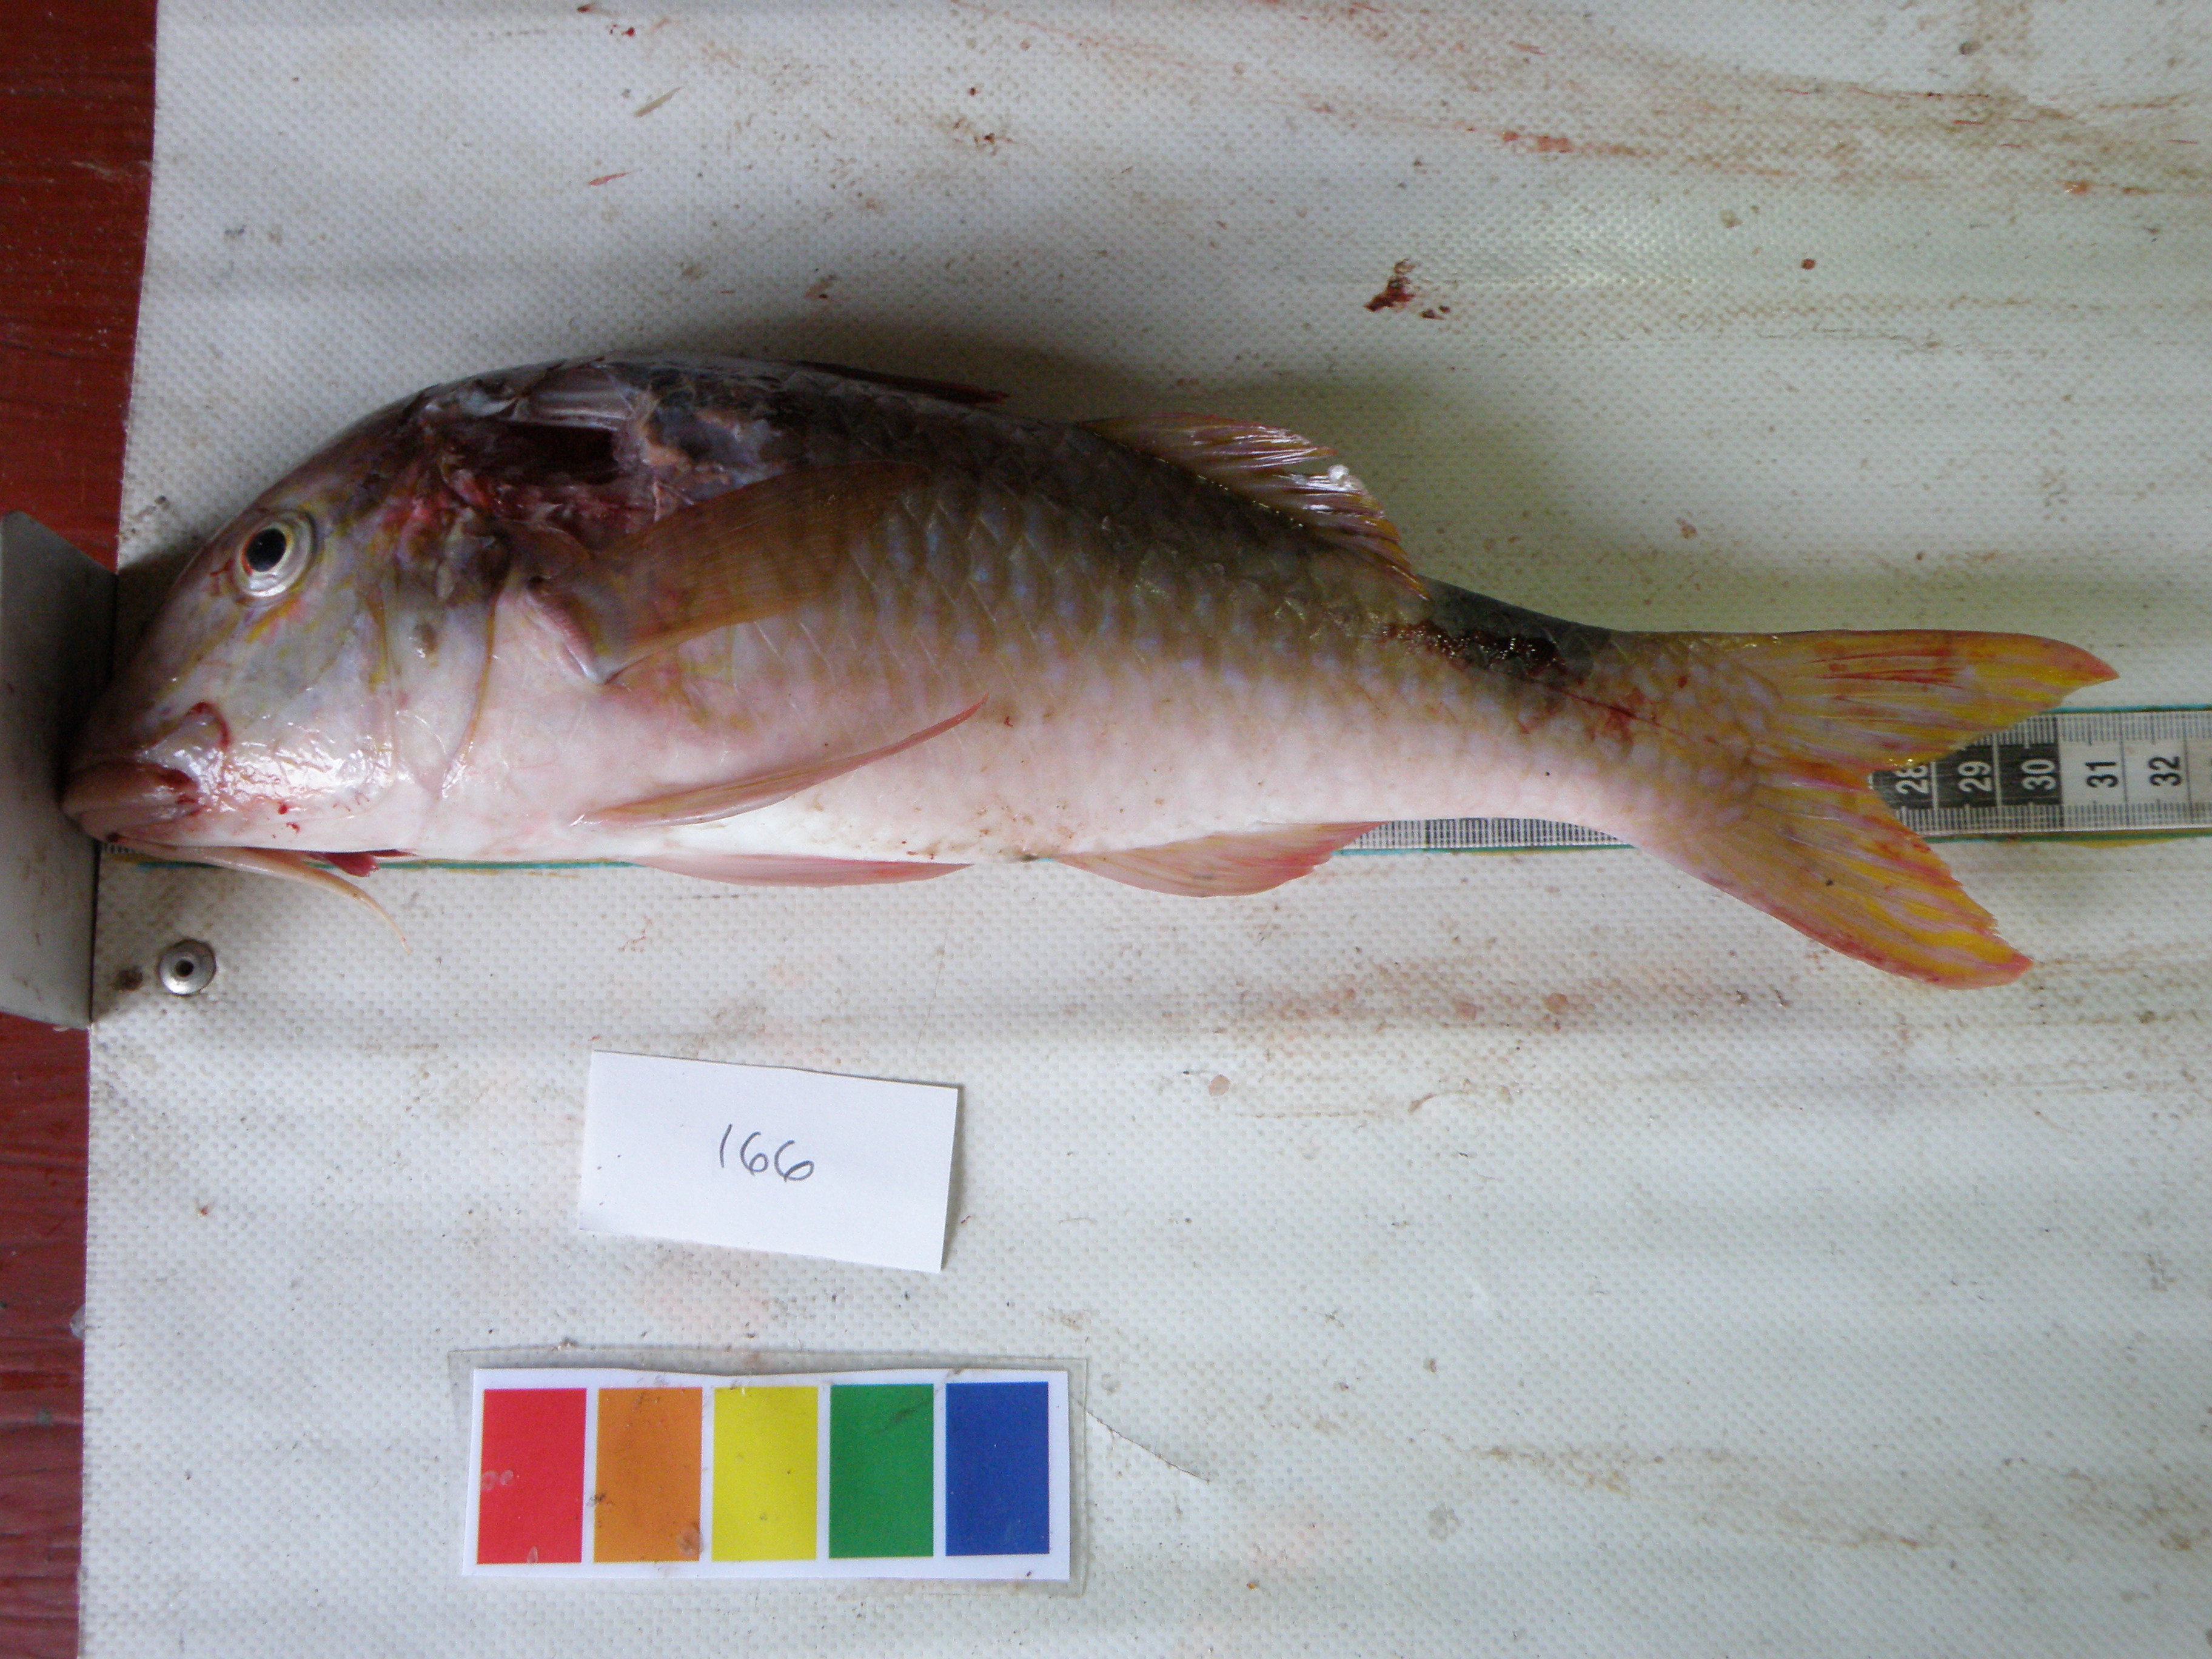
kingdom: Animalia
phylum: Chordata
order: Perciformes
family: Mullidae
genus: Parupeneus
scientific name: Parupeneus rubescens
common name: Rosy goatfish
